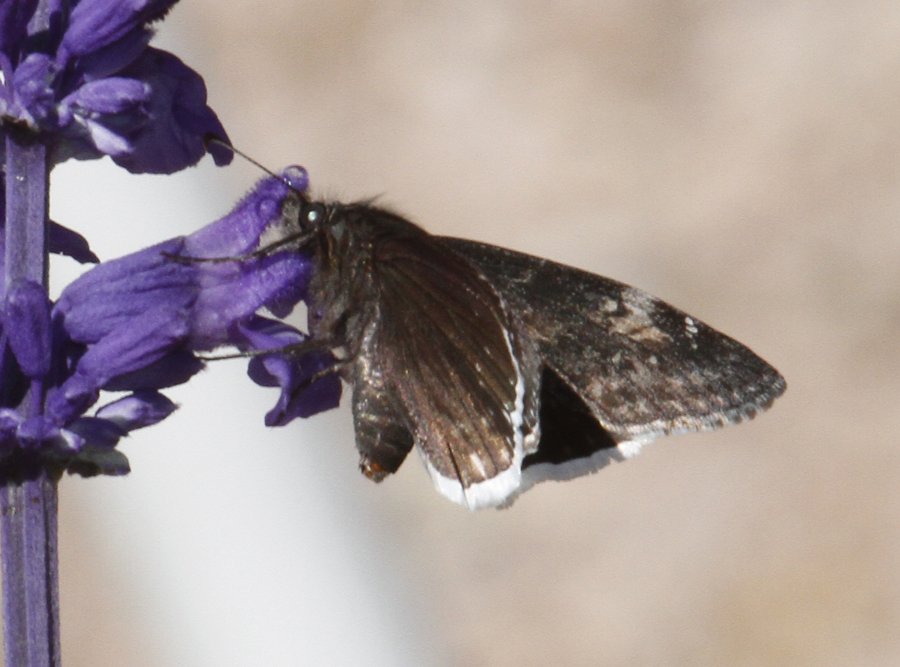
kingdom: Animalia
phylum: Arthropoda
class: Insecta
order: Lepidoptera
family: Hesperiidae
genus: Erynnis
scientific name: Erynnis funeralis
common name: Funereal Duskywing
